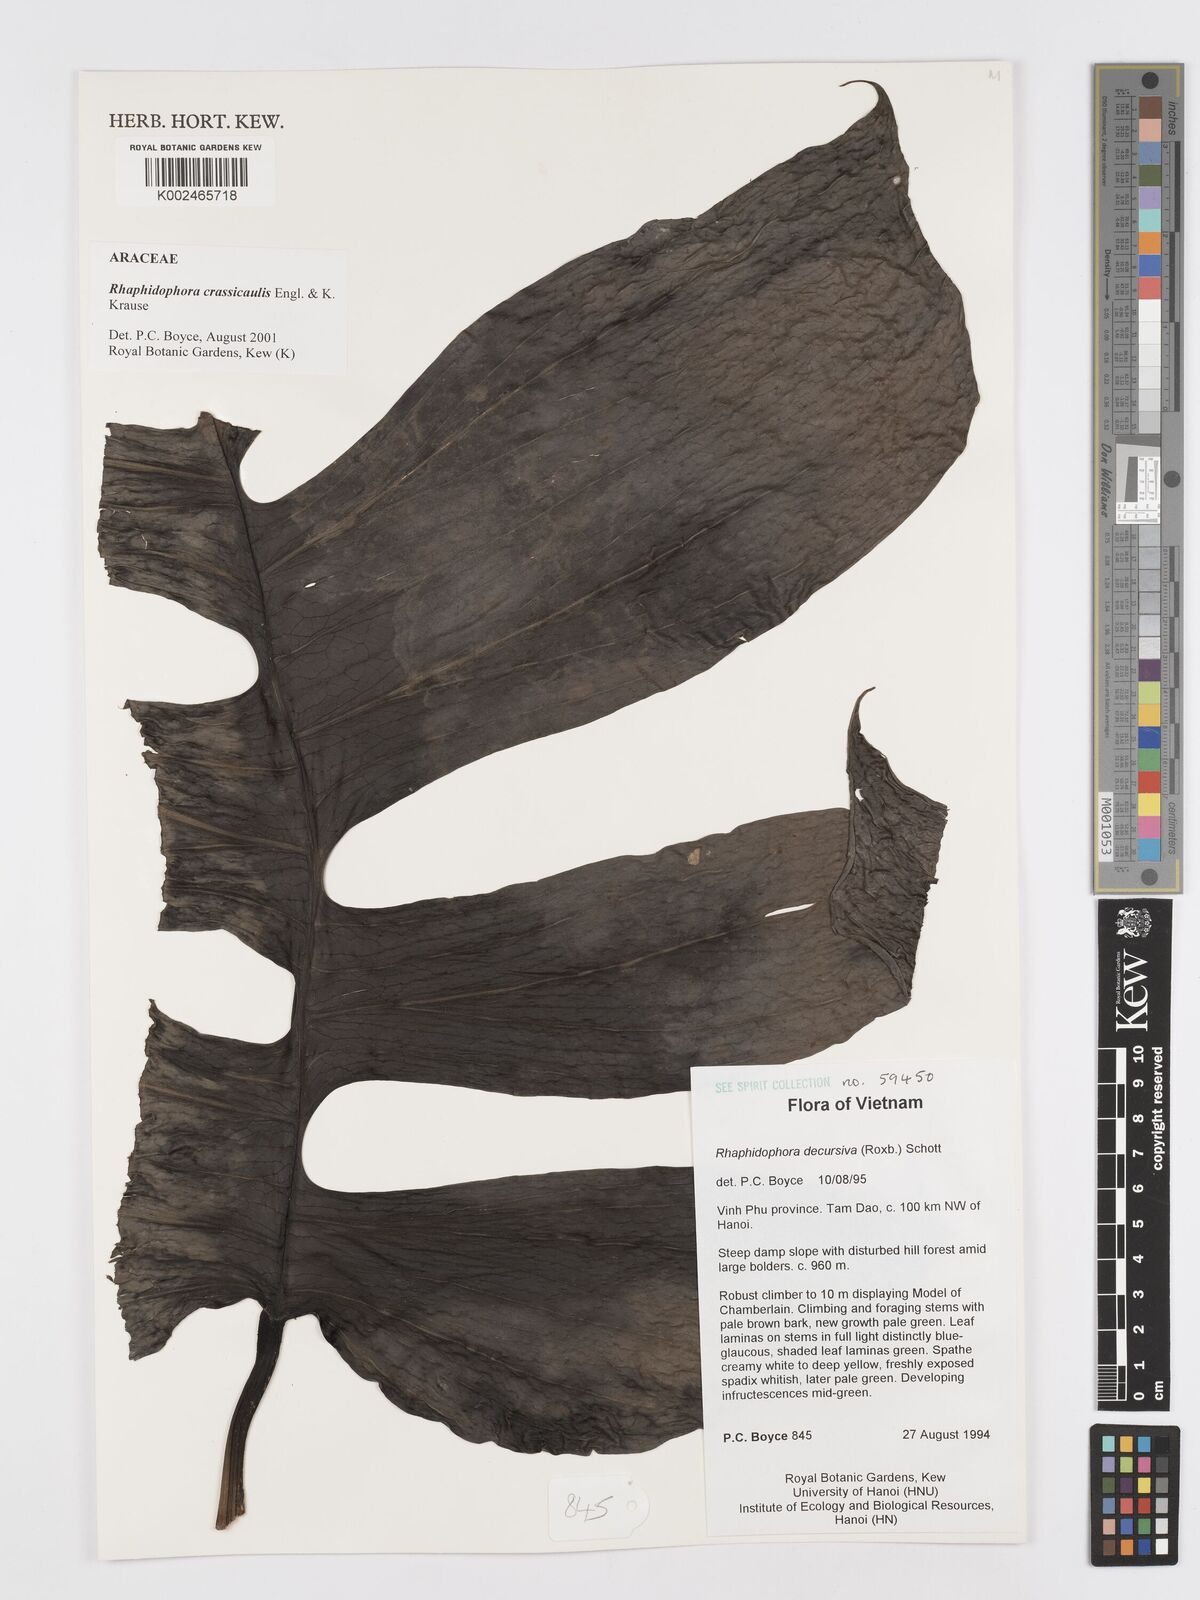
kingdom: Plantae
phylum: Tracheophyta
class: Liliopsida
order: Alismatales
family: Araceae
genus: Rhaphidophora
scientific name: Rhaphidophora crassicaulis
